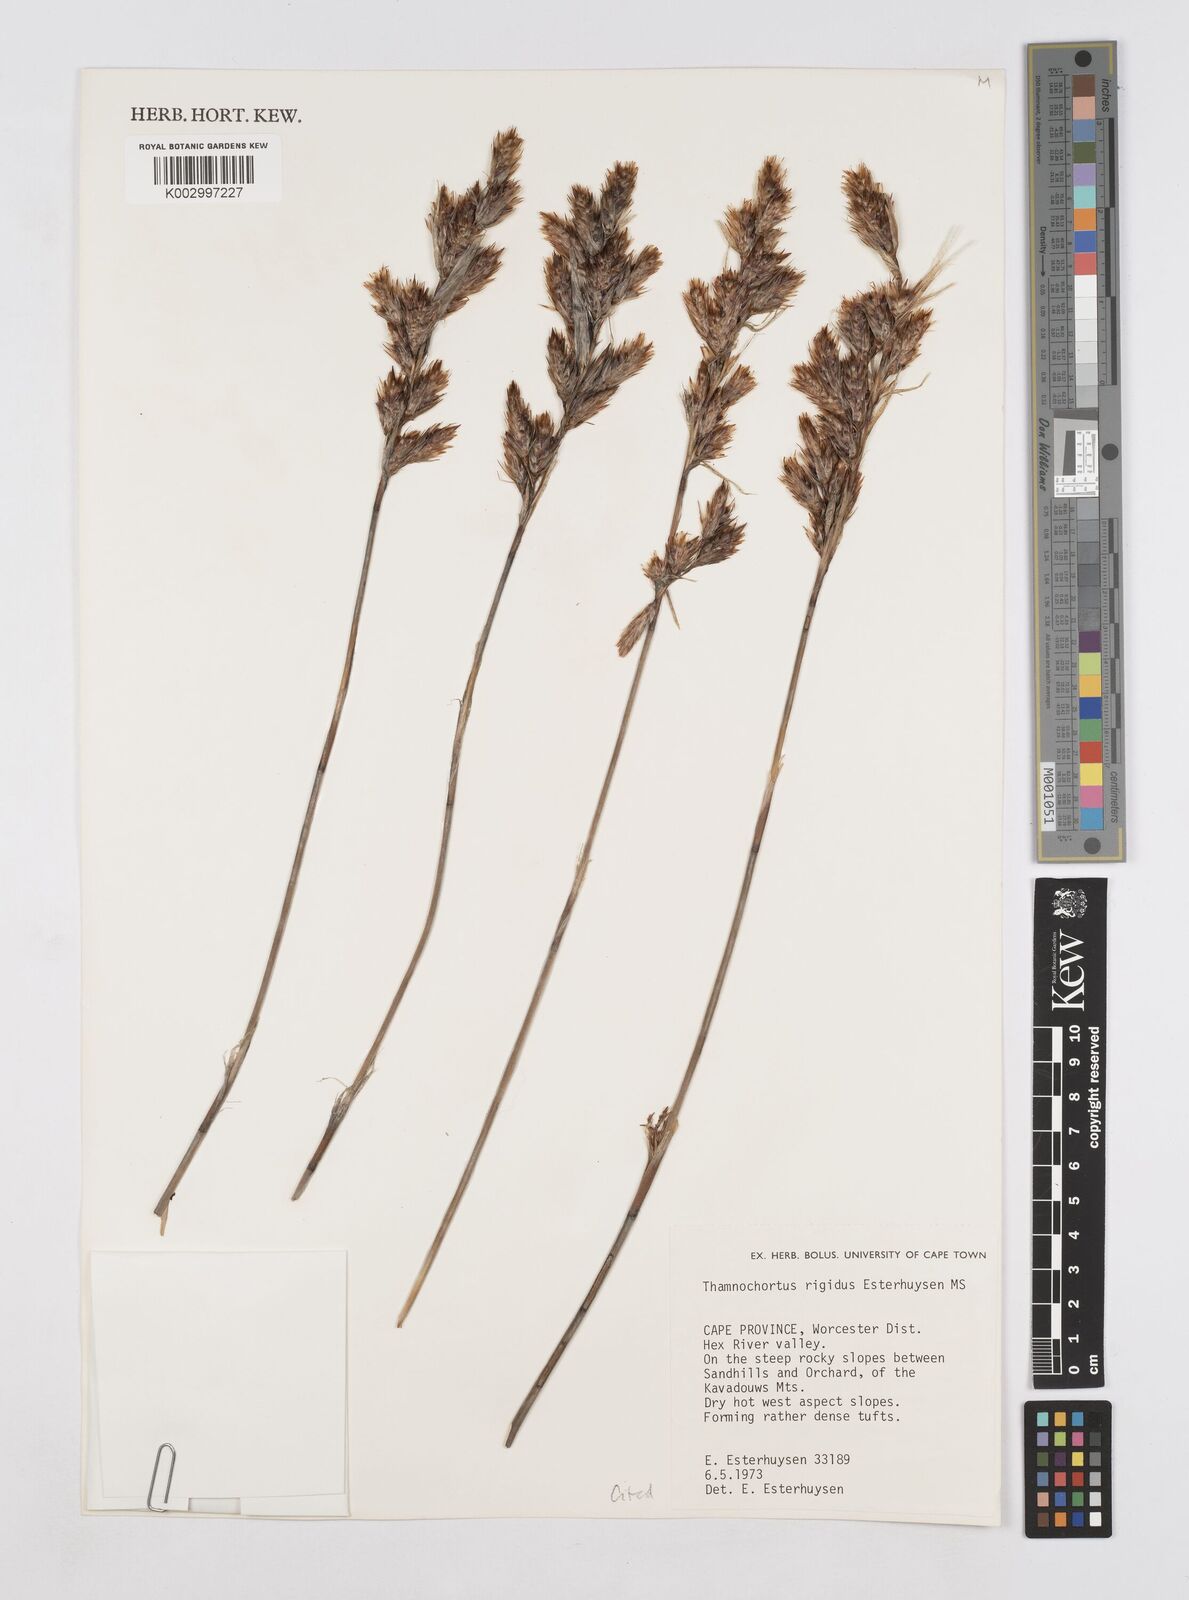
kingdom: Plantae
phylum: Tracheophyta
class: Liliopsida
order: Poales
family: Restionaceae
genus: Thamnochortus
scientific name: Thamnochortus rigidus
